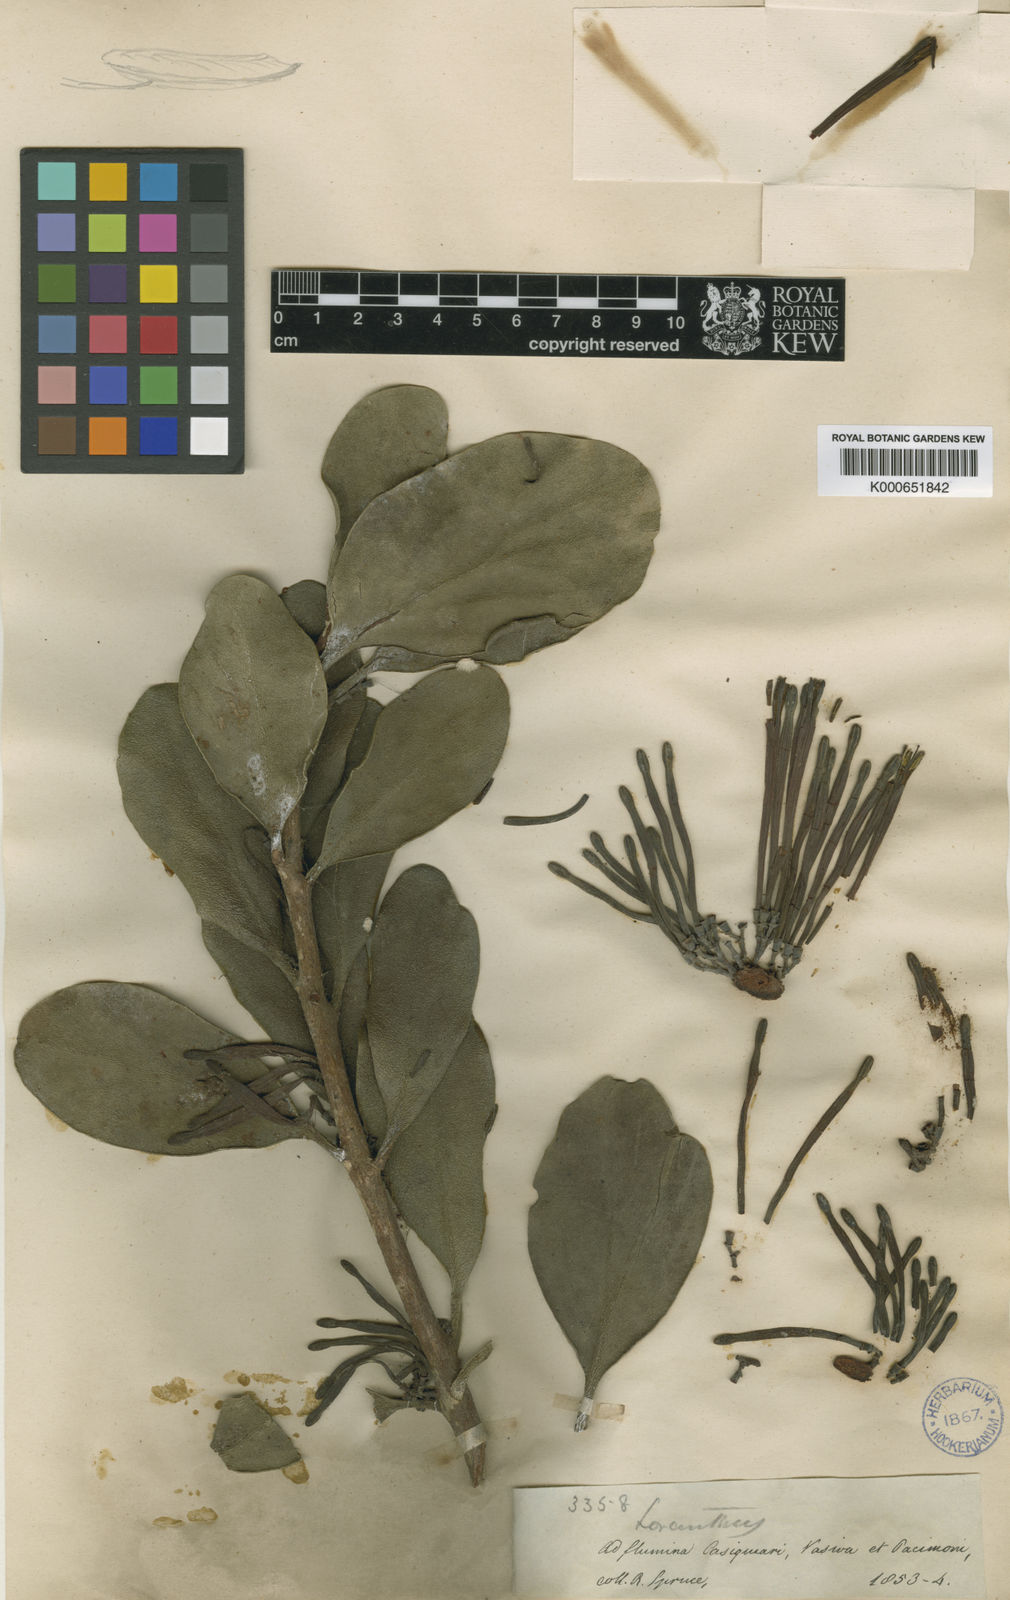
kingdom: Plantae
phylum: Tracheophyta
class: Magnoliopsida
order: Santalales
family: Loranthaceae
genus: Psittacanthus
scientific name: Psittacanthus brachynema
